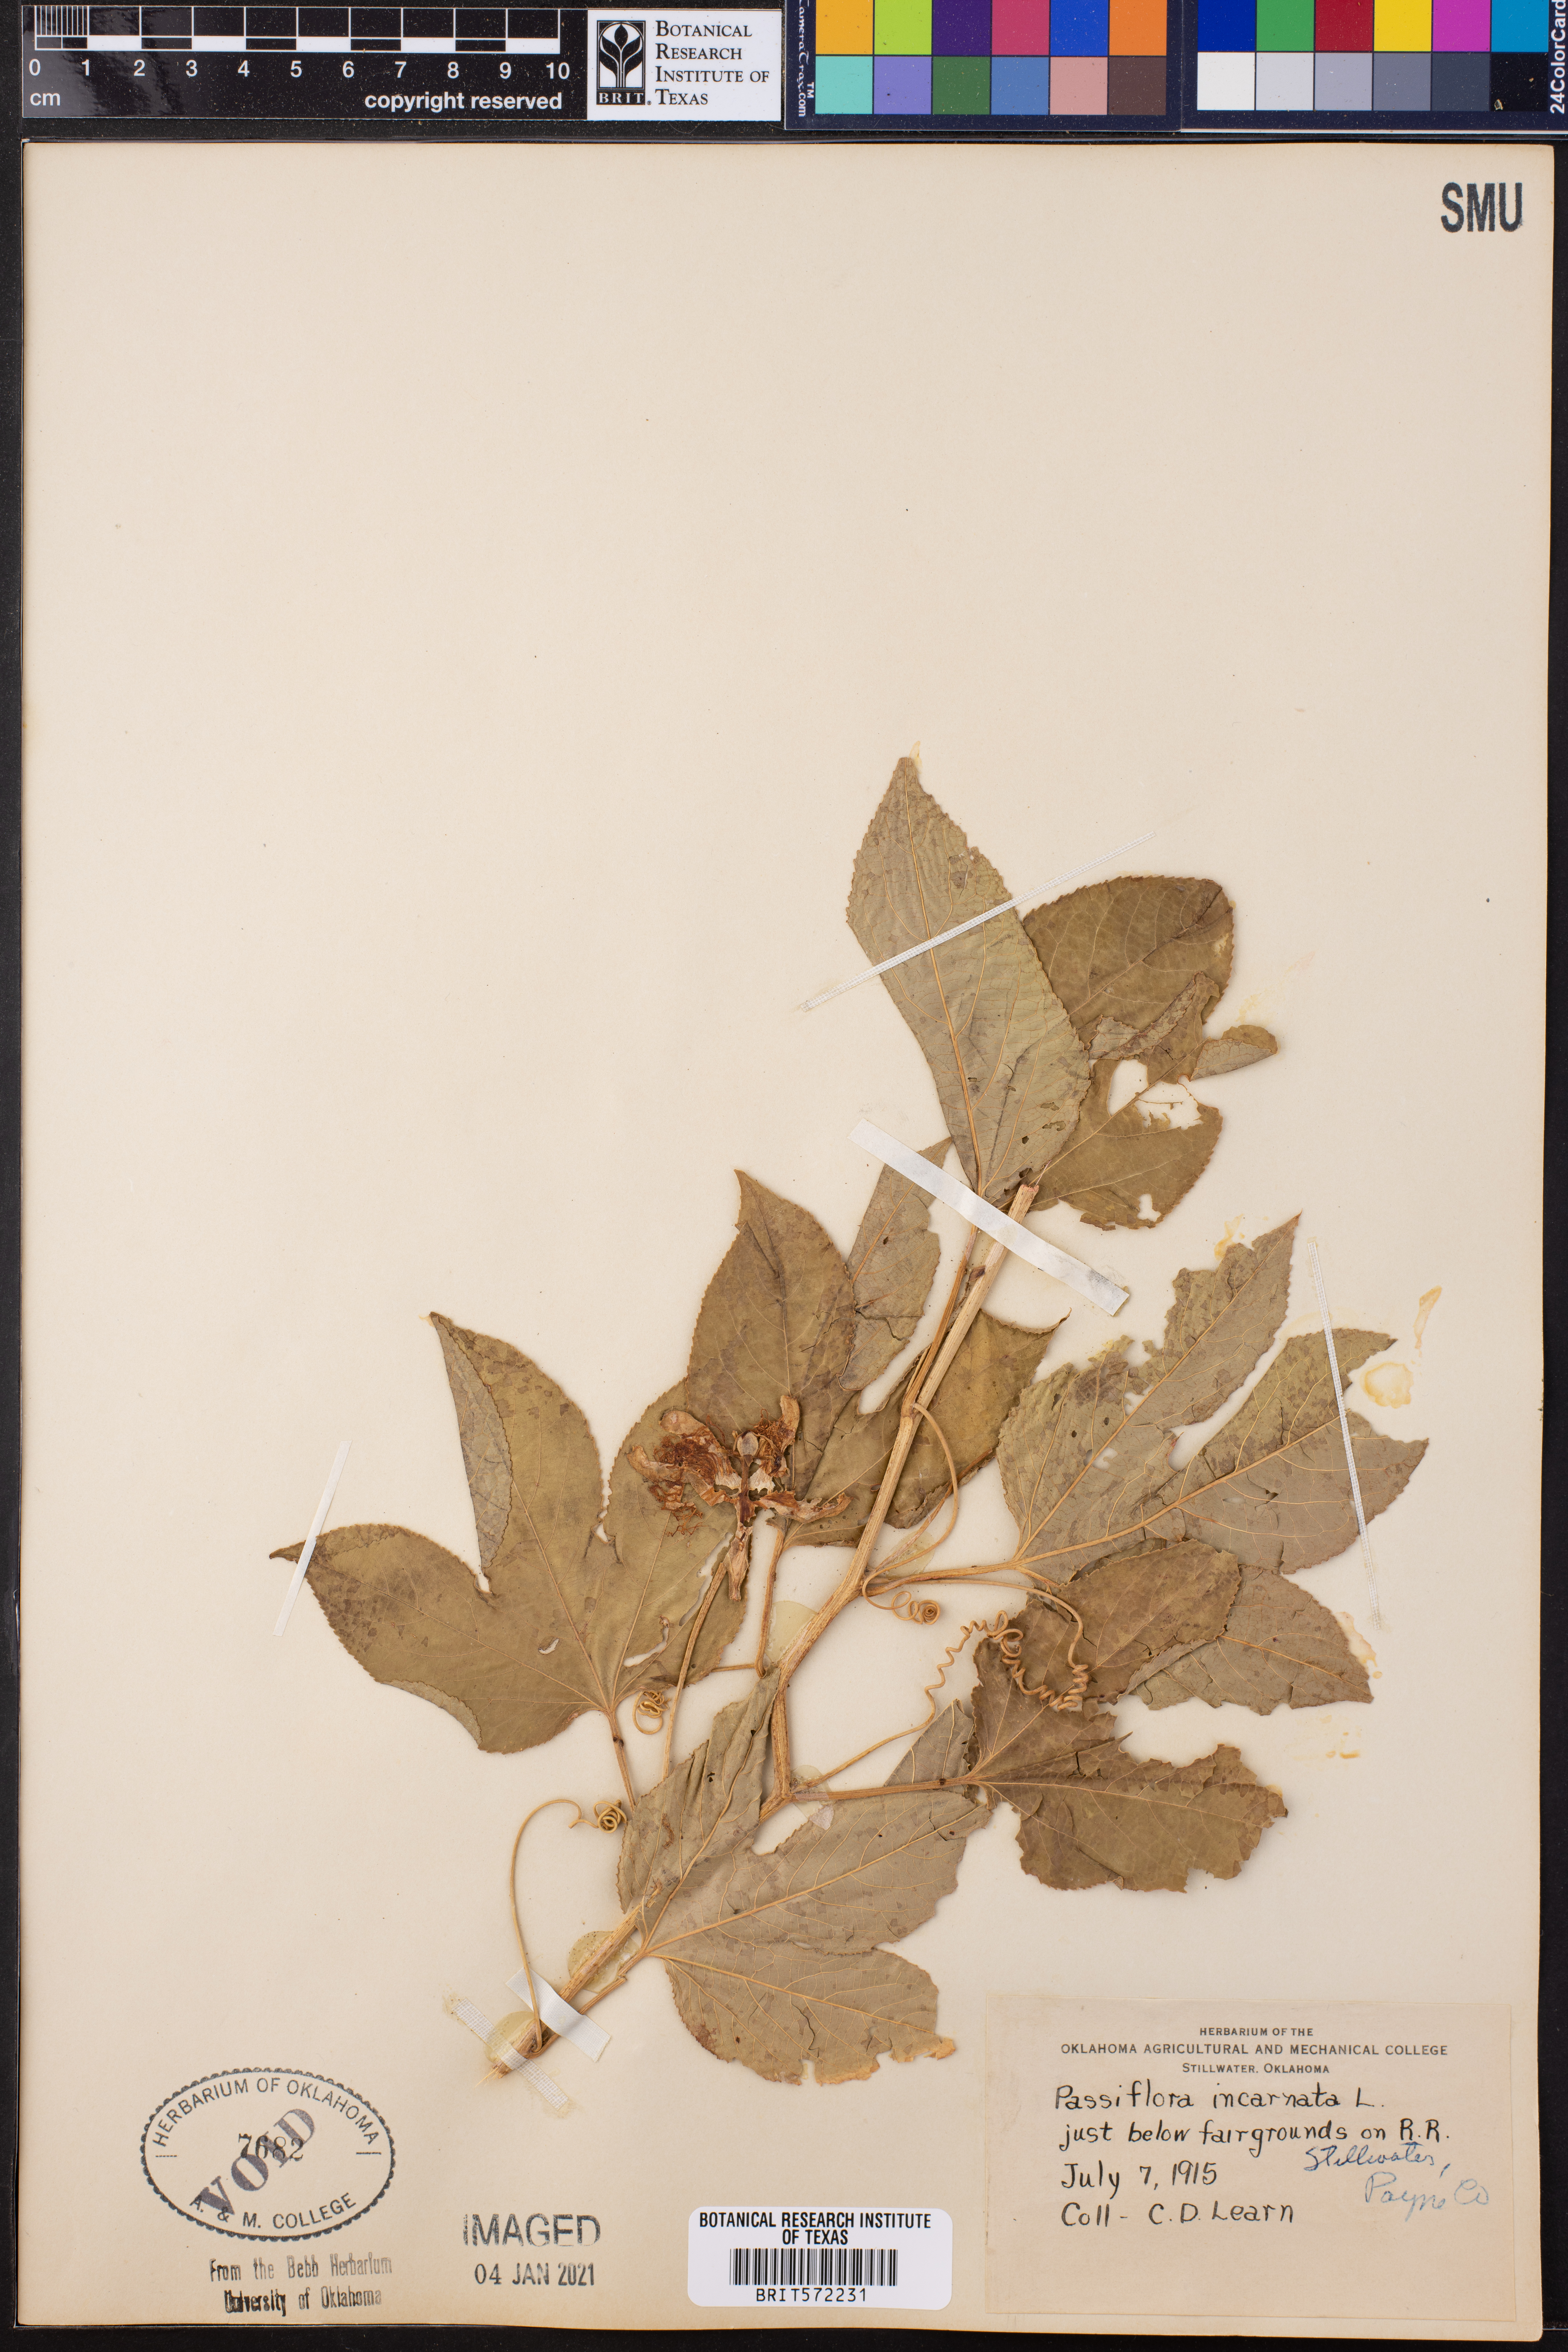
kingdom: Plantae
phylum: Tracheophyta
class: Magnoliopsida
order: Malpighiales
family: Passifloraceae
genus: Passiflora
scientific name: Passiflora incarnata
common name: Apricot-vine
